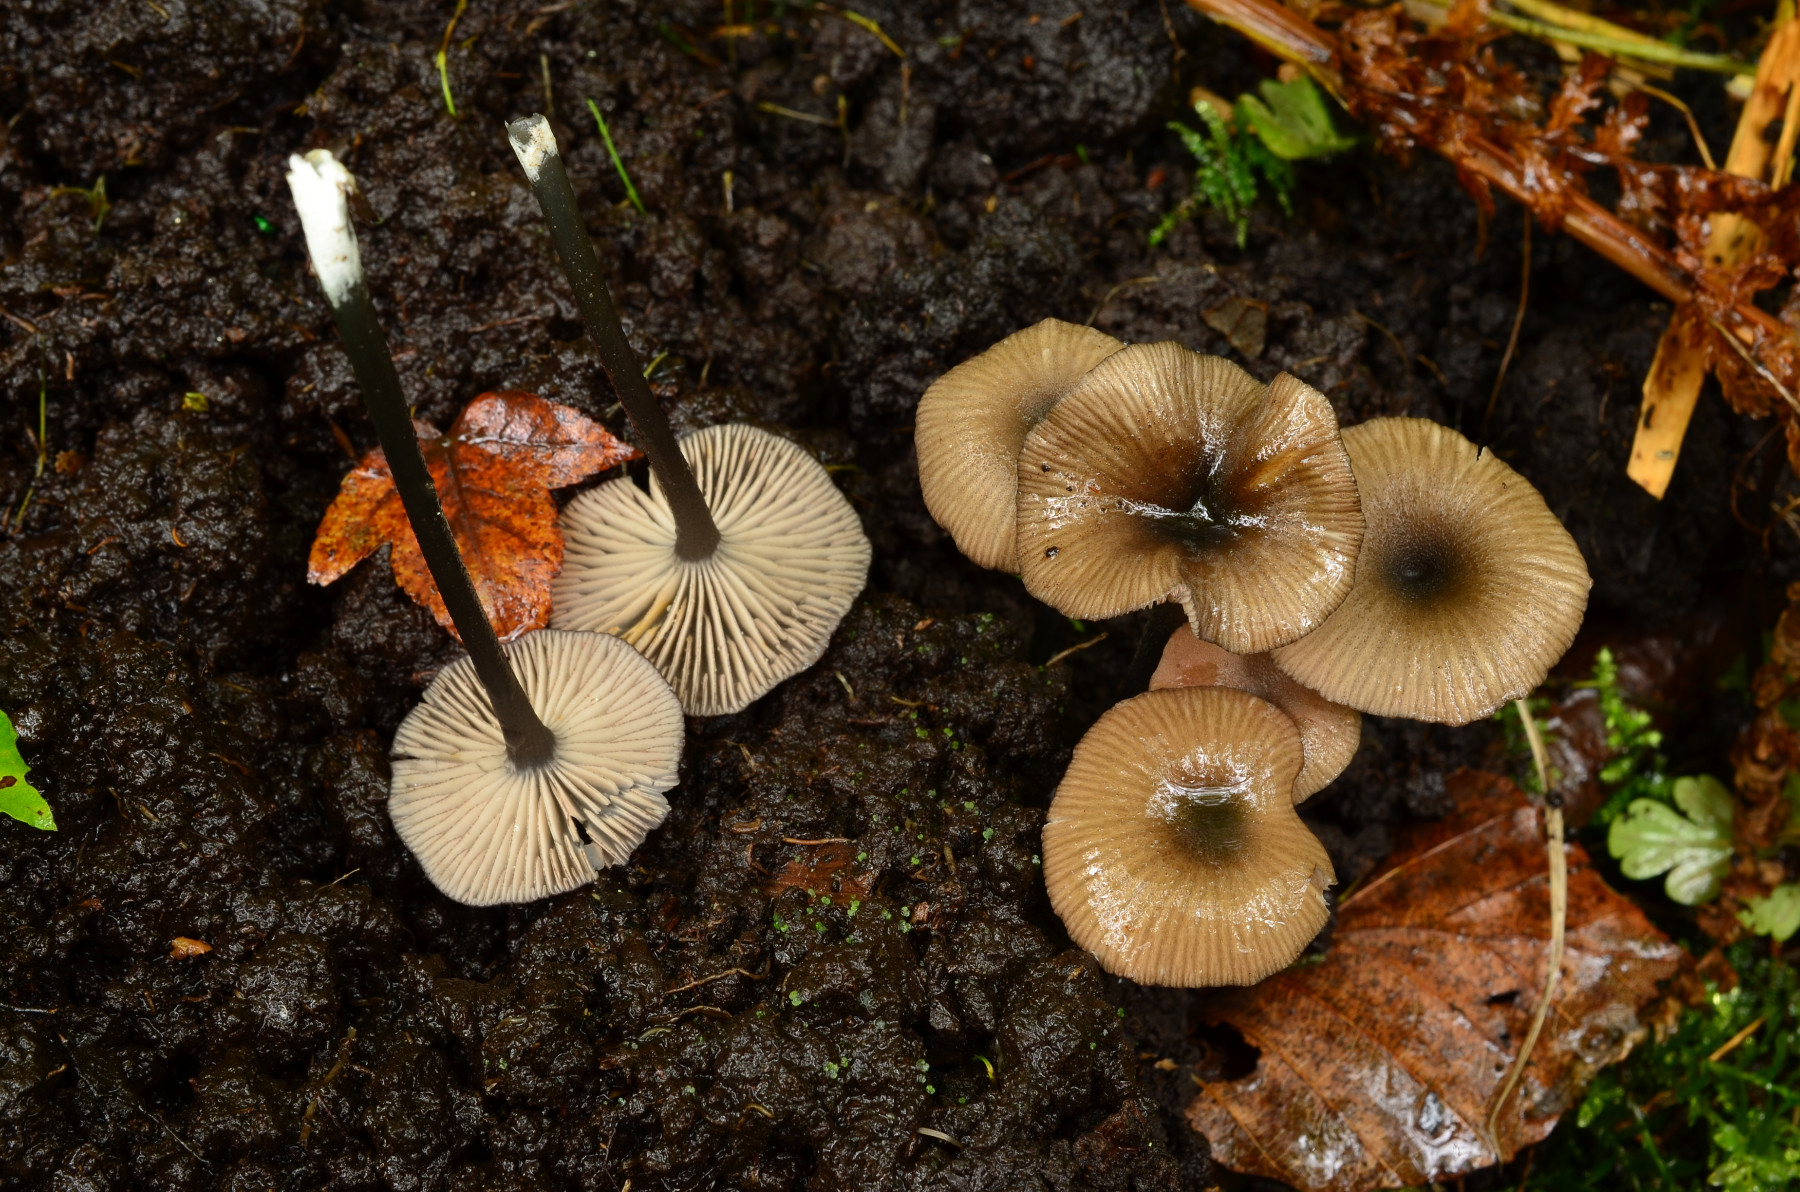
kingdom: Fungi
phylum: Basidiomycota
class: Agaricomycetes
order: Agaricales
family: Entolomataceae
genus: Entoloma
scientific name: Entoloma
